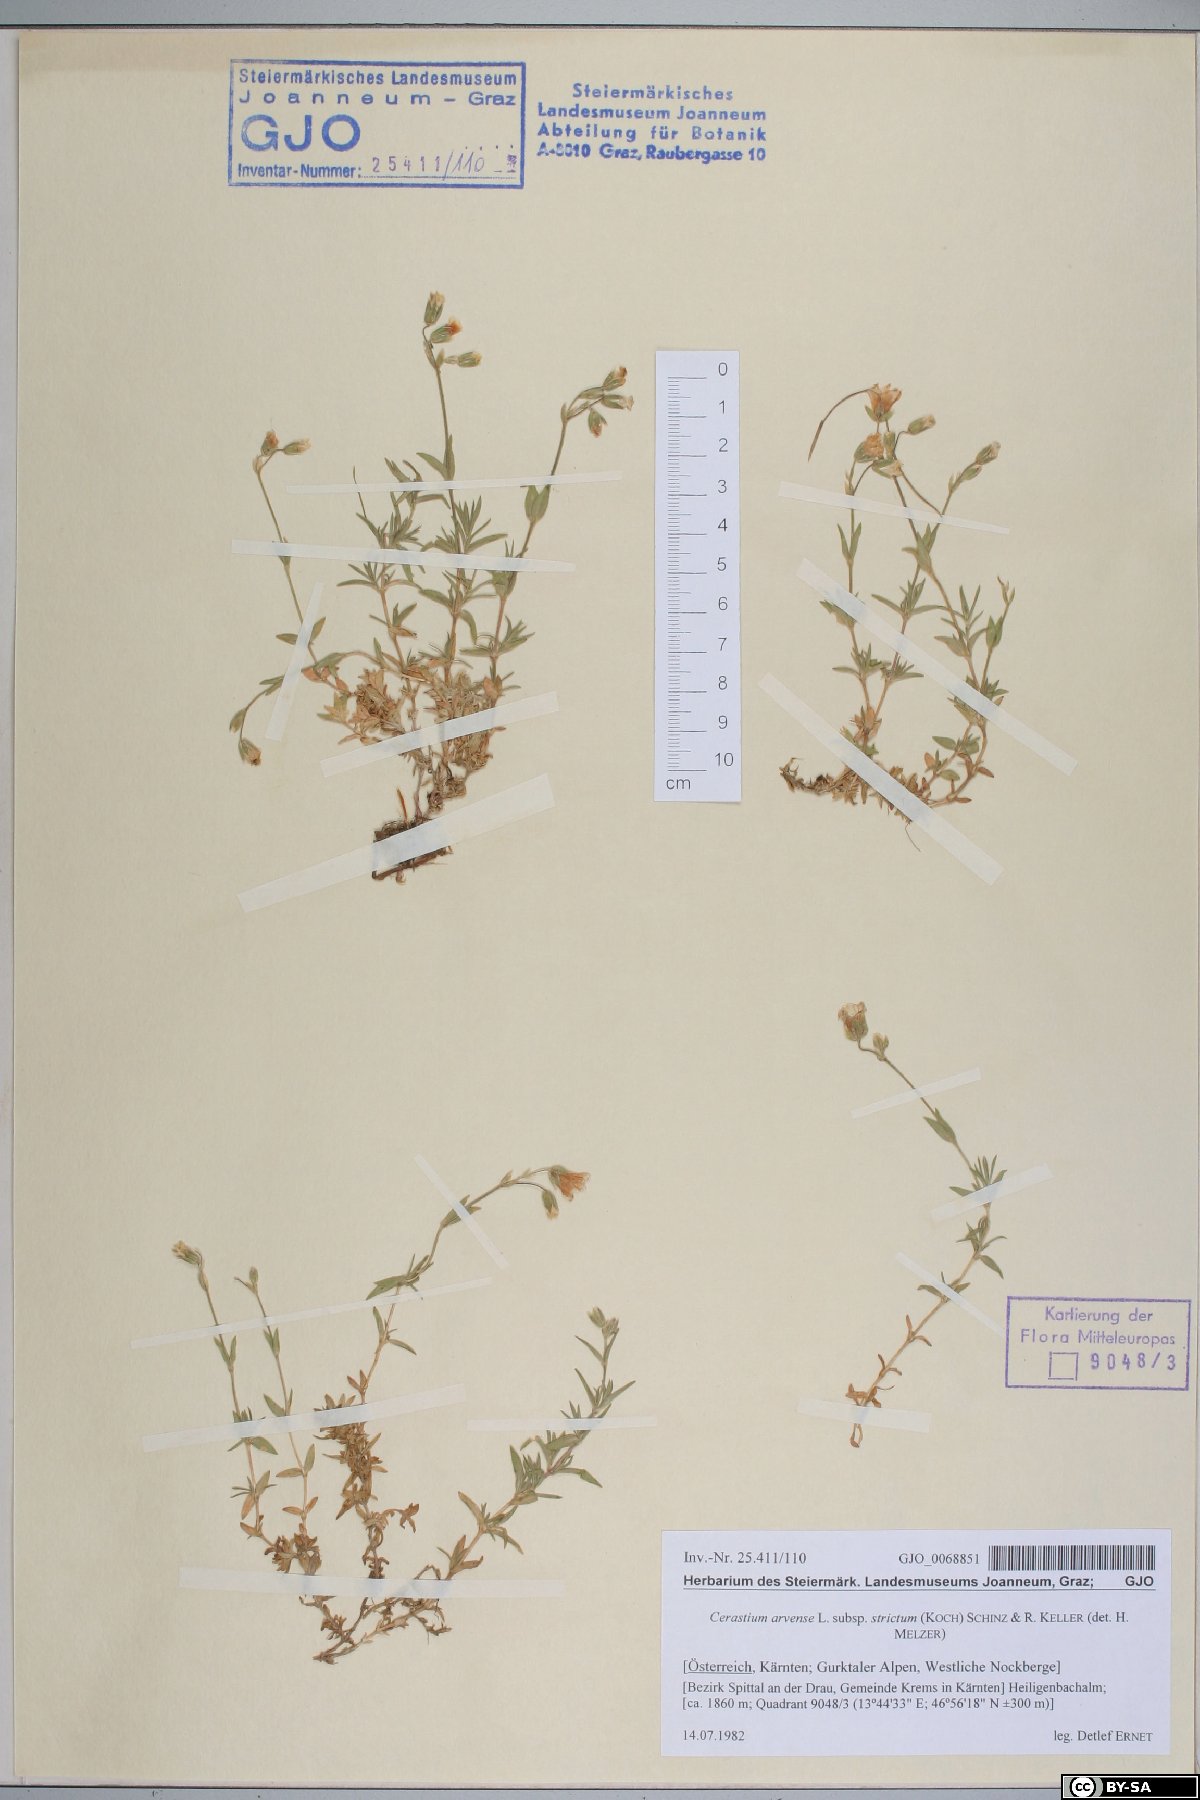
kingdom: Plantae
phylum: Tracheophyta
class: Magnoliopsida
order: Caryophyllales
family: Caryophyllaceae
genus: Cerastium
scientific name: Cerastium elongatum
